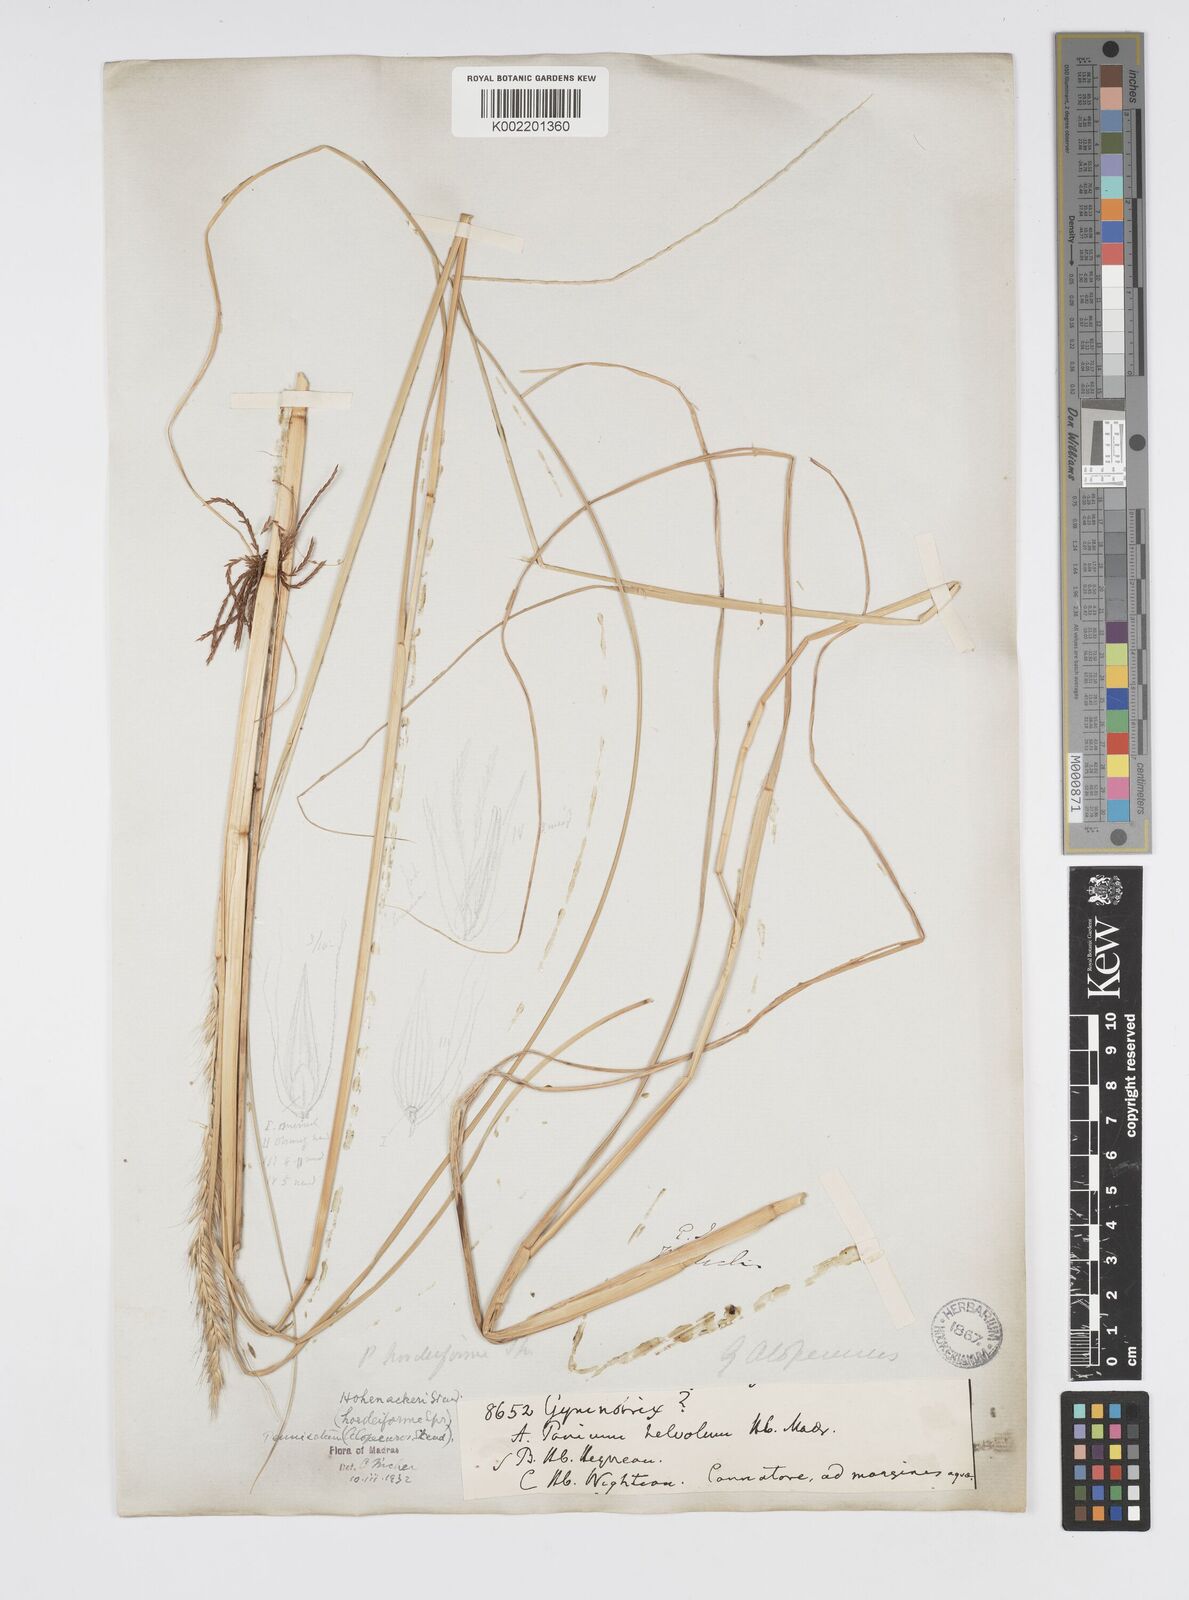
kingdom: Plantae
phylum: Tracheophyta
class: Liliopsida
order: Poales
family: Poaceae
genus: Cenchrus
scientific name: Cenchrus hohenackeri
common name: Moya grass
